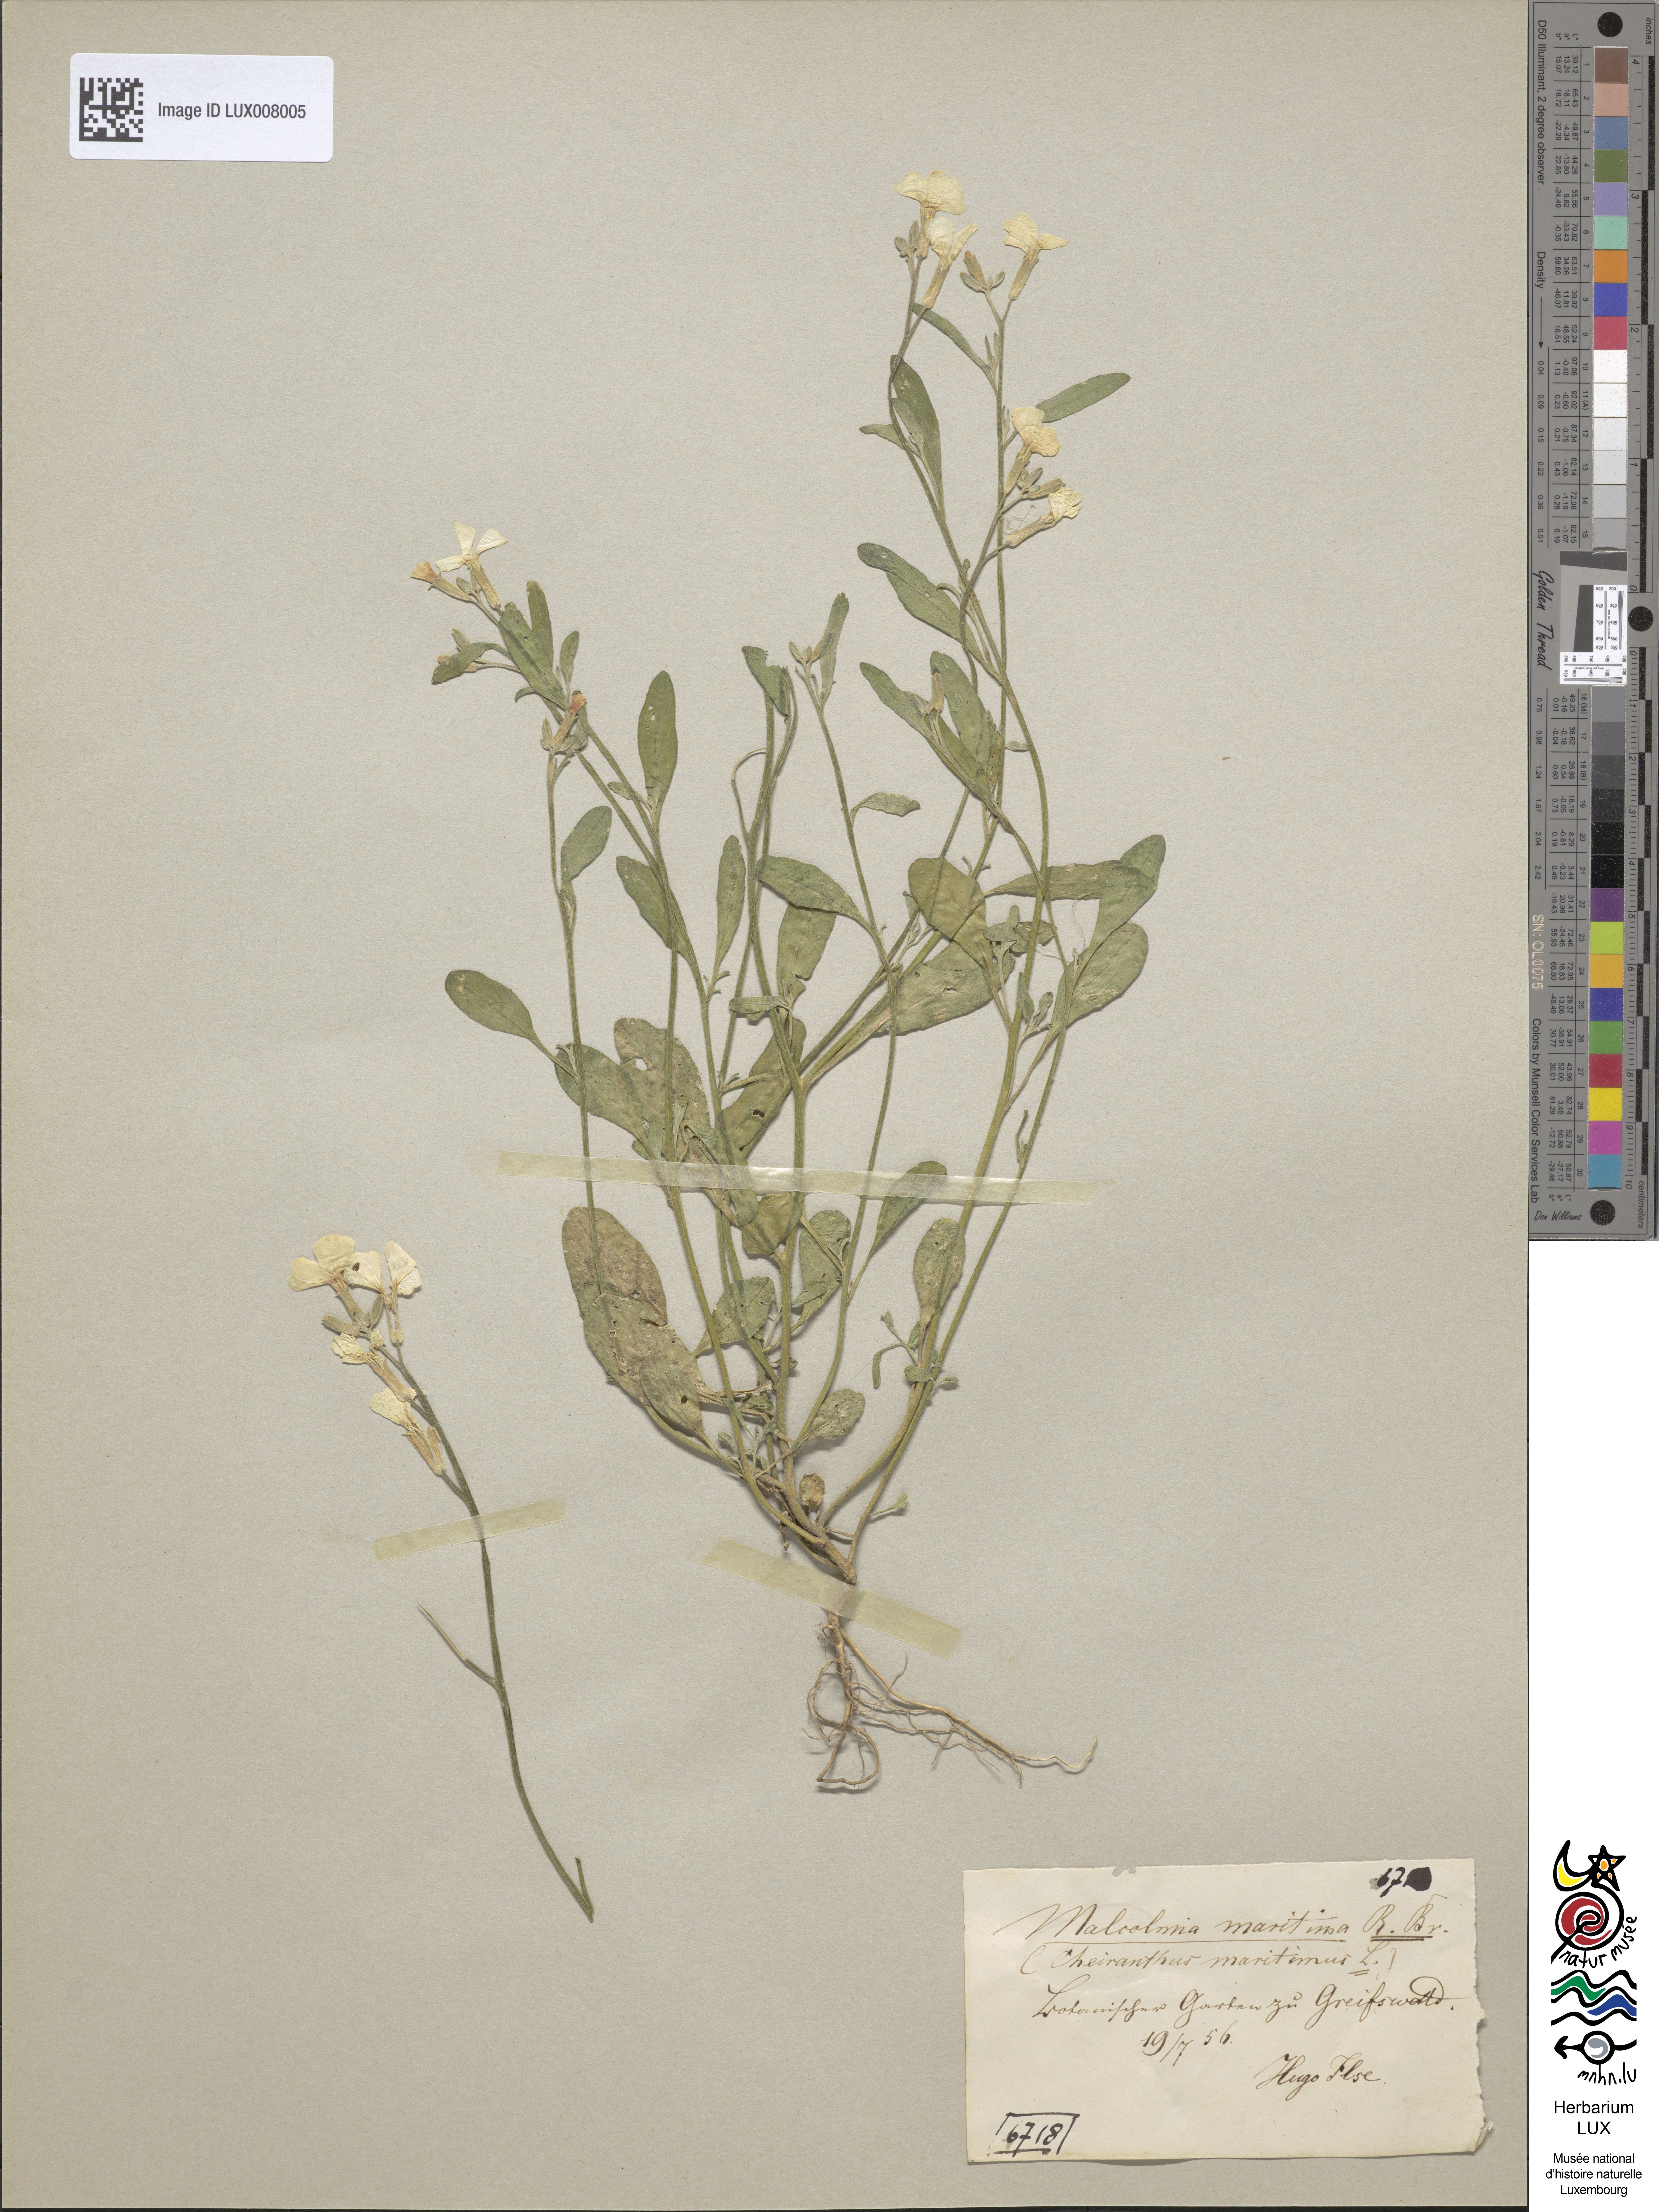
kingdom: Plantae
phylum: Tracheophyta
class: Magnoliopsida
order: Brassicales
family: Brassicaceae
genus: Malcolmia
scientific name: Malcolmia maritima
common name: Virginia stock
